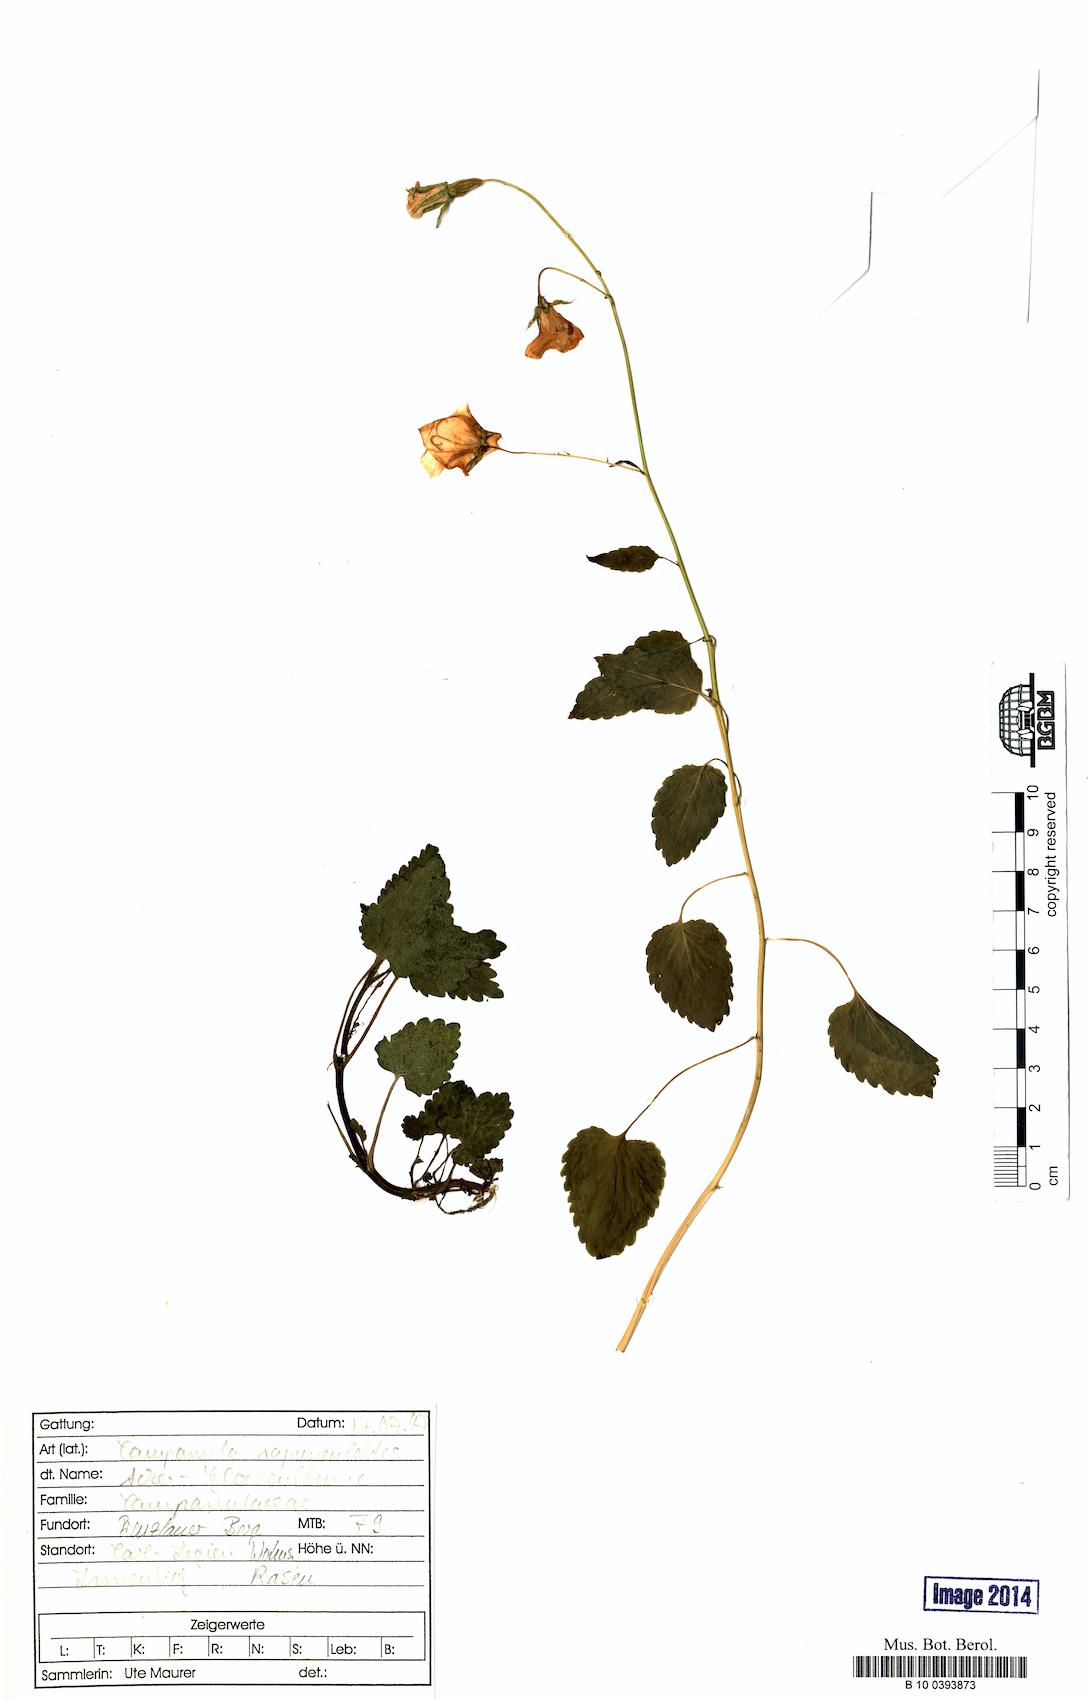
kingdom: Plantae
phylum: Tracheophyta
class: Magnoliopsida
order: Asterales
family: Campanulaceae
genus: Campanula
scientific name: Campanula rapunculoides
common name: Creeping bellflower
